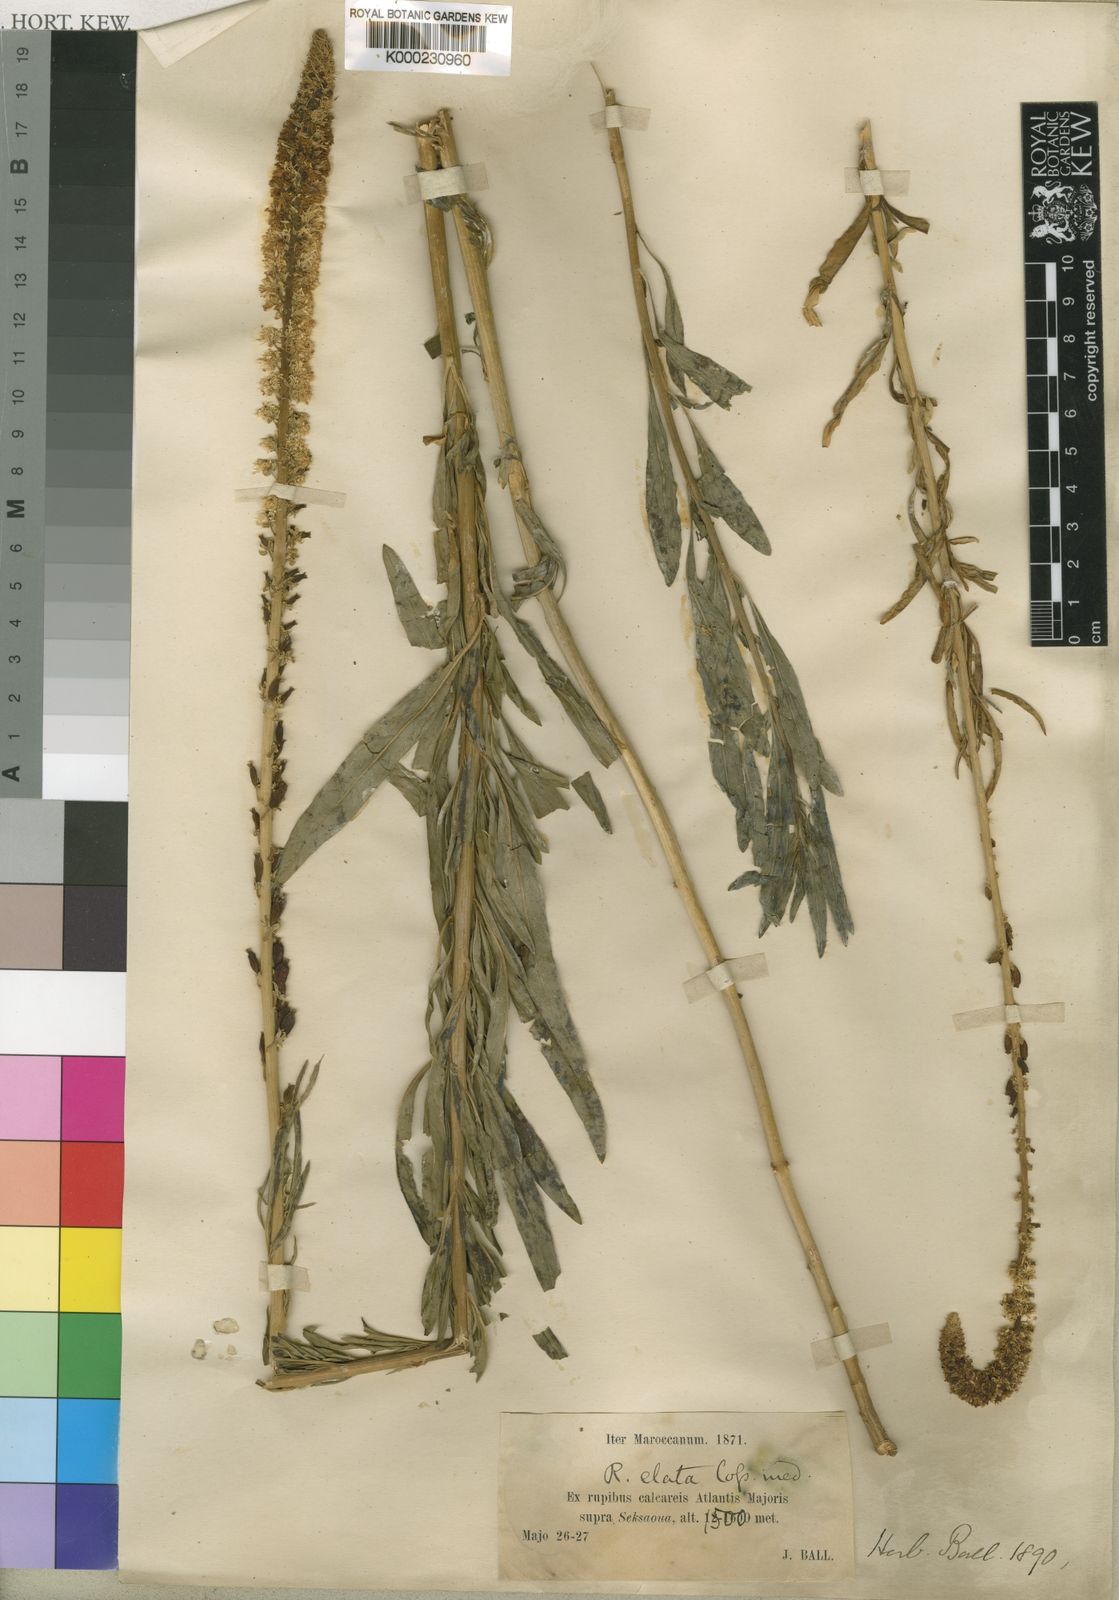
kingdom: Plantae
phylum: Tracheophyta
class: Magnoliopsida
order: Brassicales
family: Resedaceae
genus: Reseda
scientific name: Reseda
